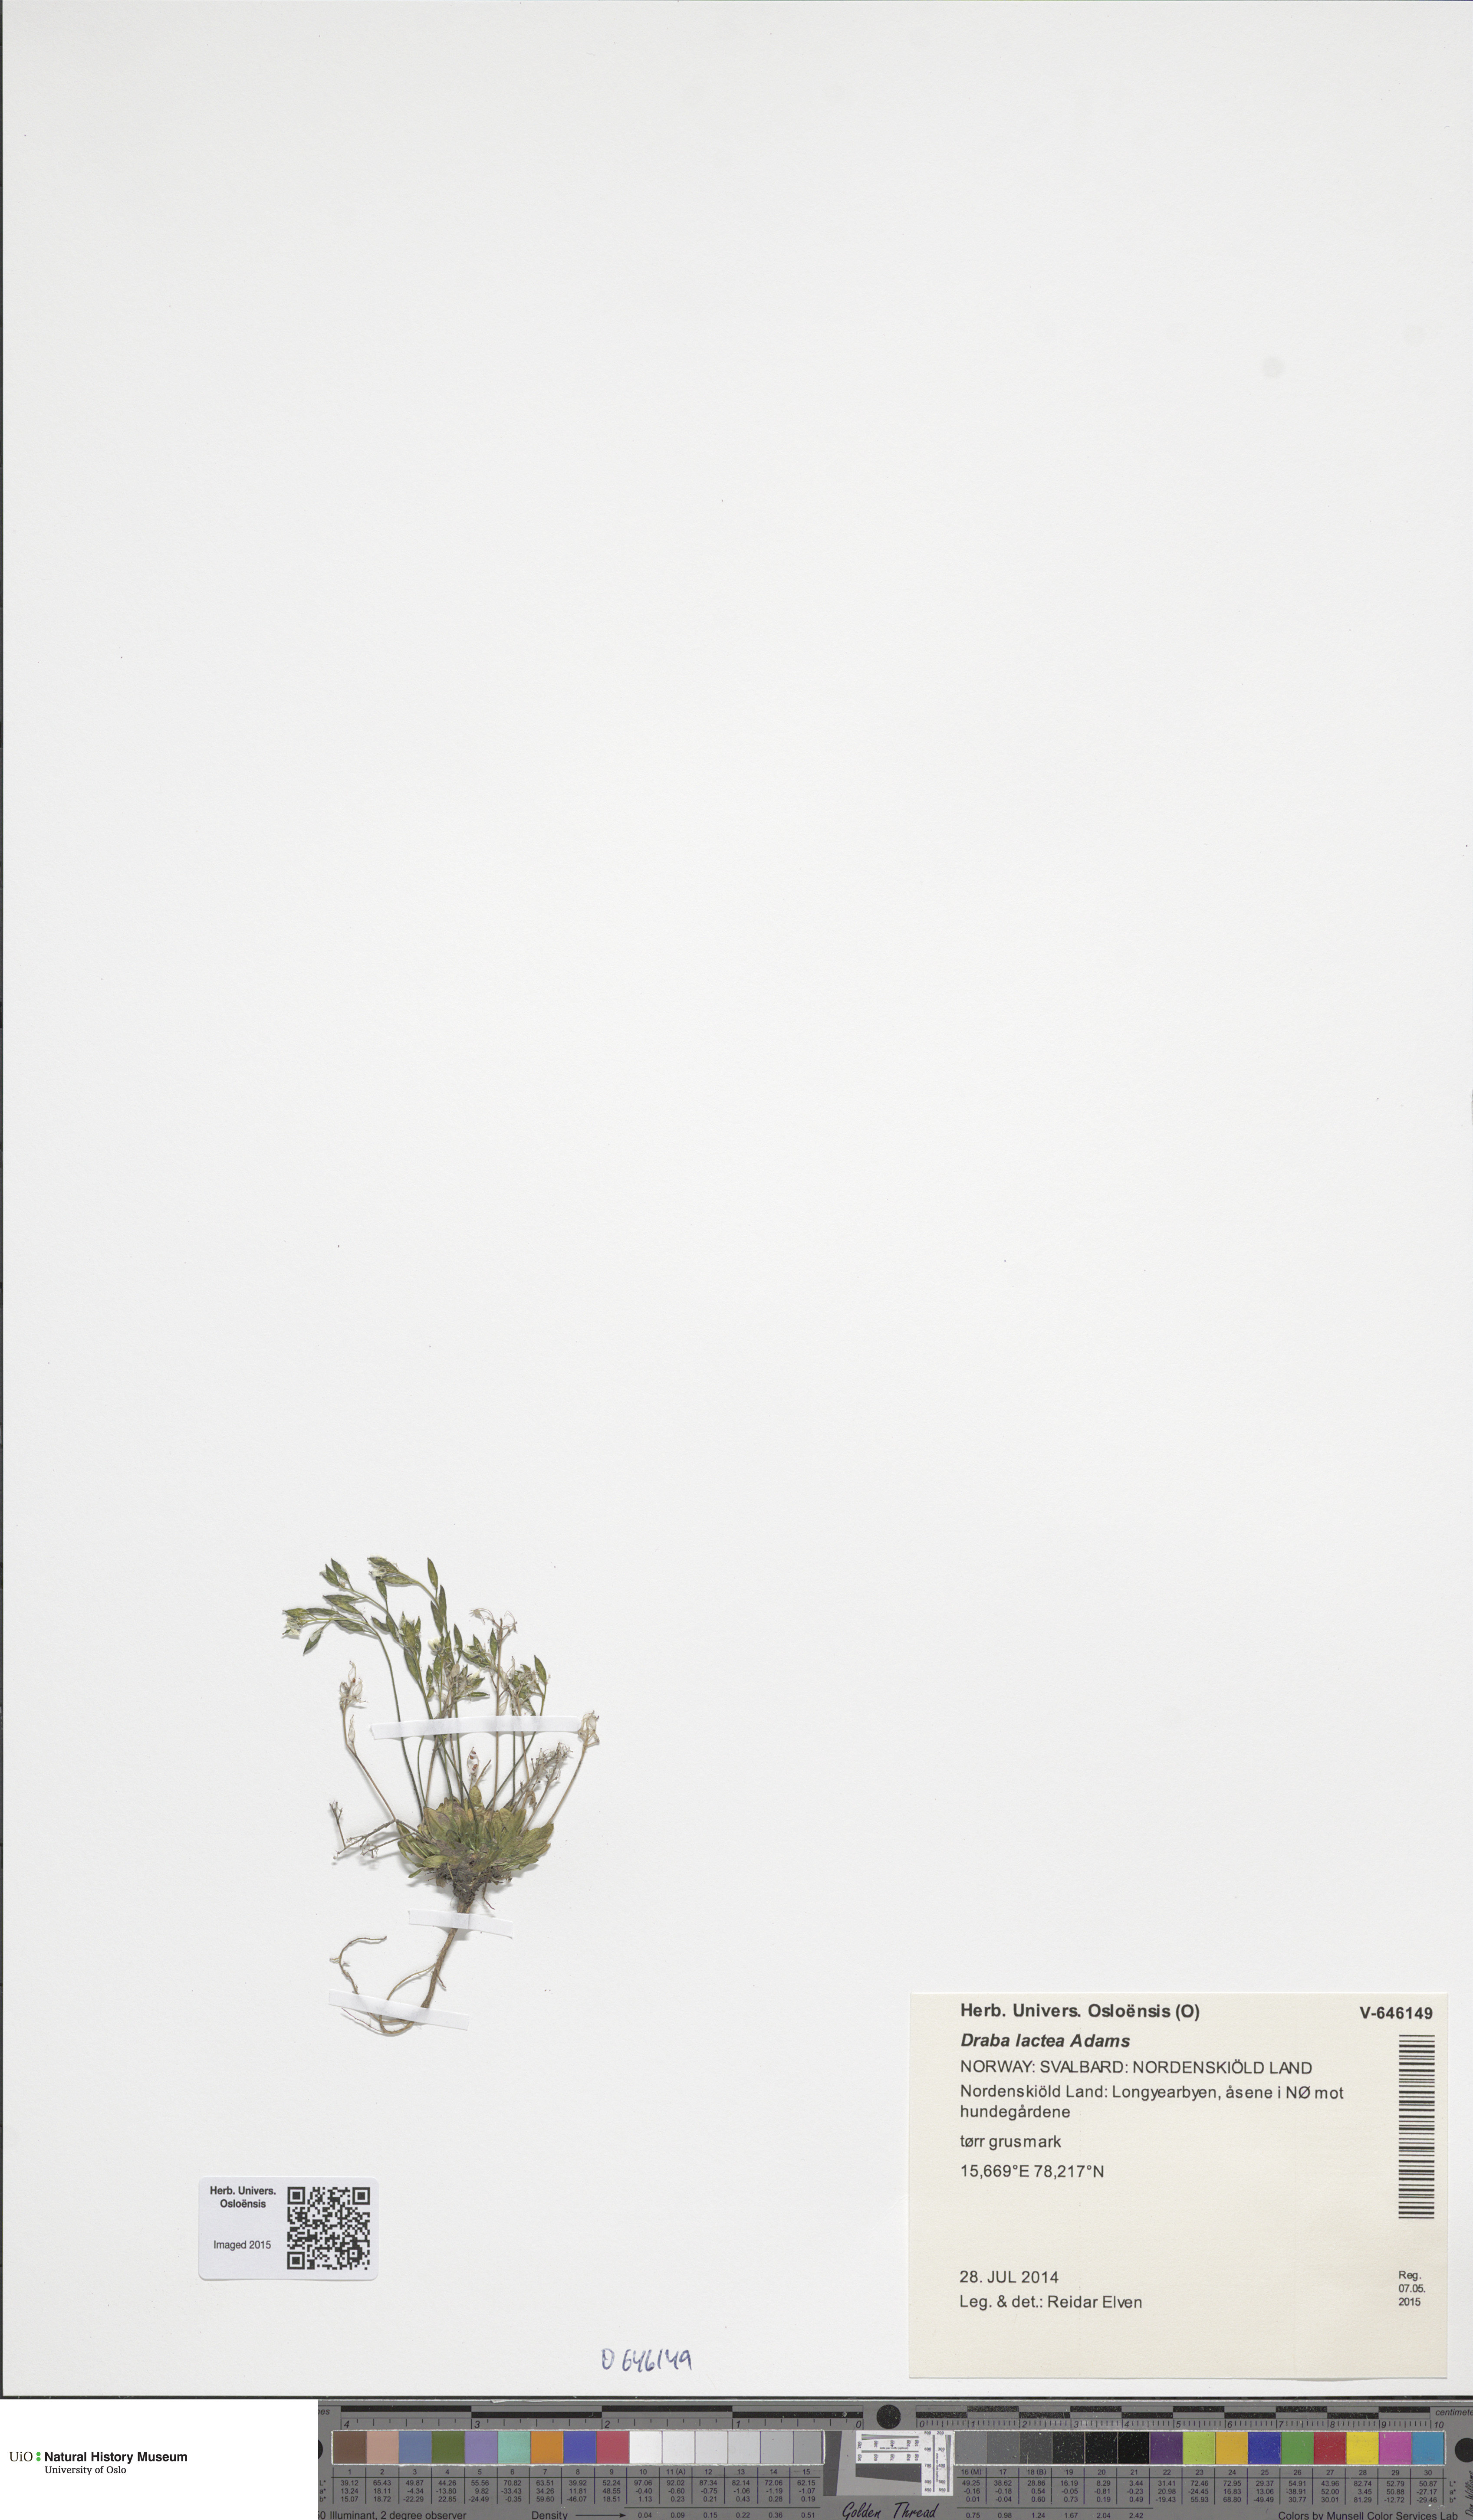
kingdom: Plantae
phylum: Tracheophyta
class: Magnoliopsida
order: Brassicales
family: Brassicaceae
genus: Draba
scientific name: Draba lactea
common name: Milky draba
